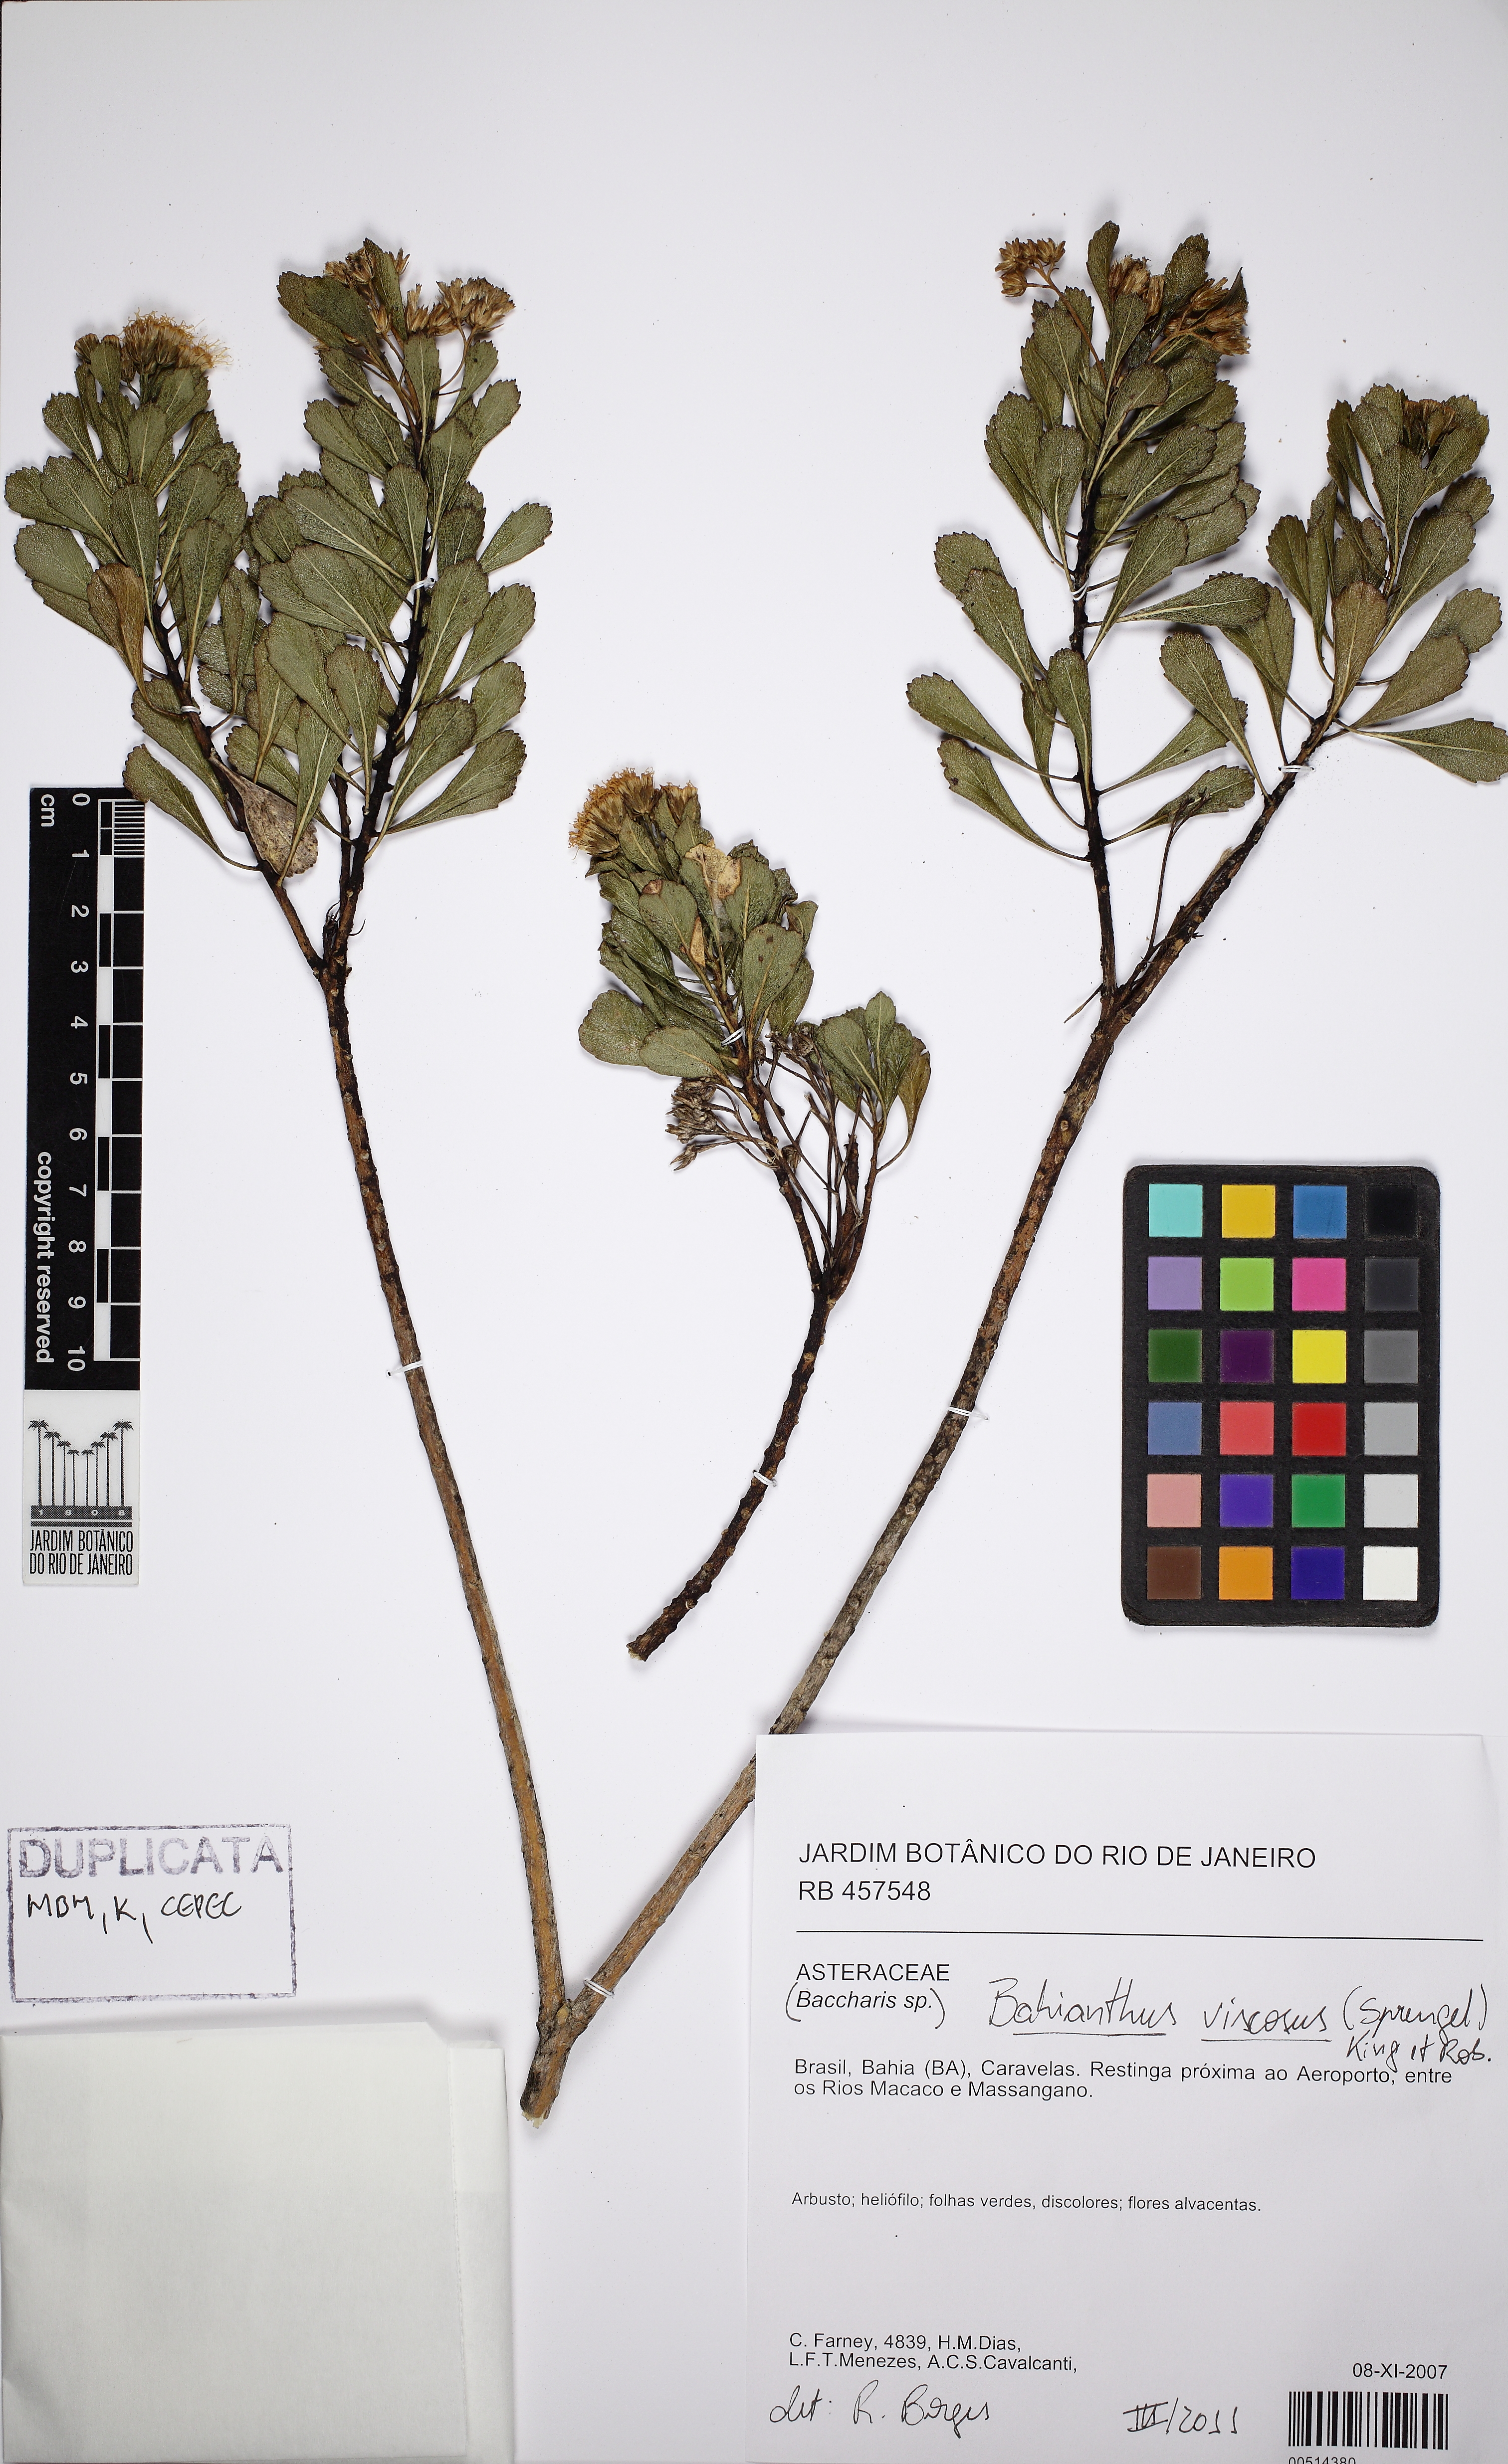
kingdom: Plantae
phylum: Tracheophyta
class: Magnoliopsida
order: Asterales
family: Asteraceae
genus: Bahianthus
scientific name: Bahianthus viscosus
